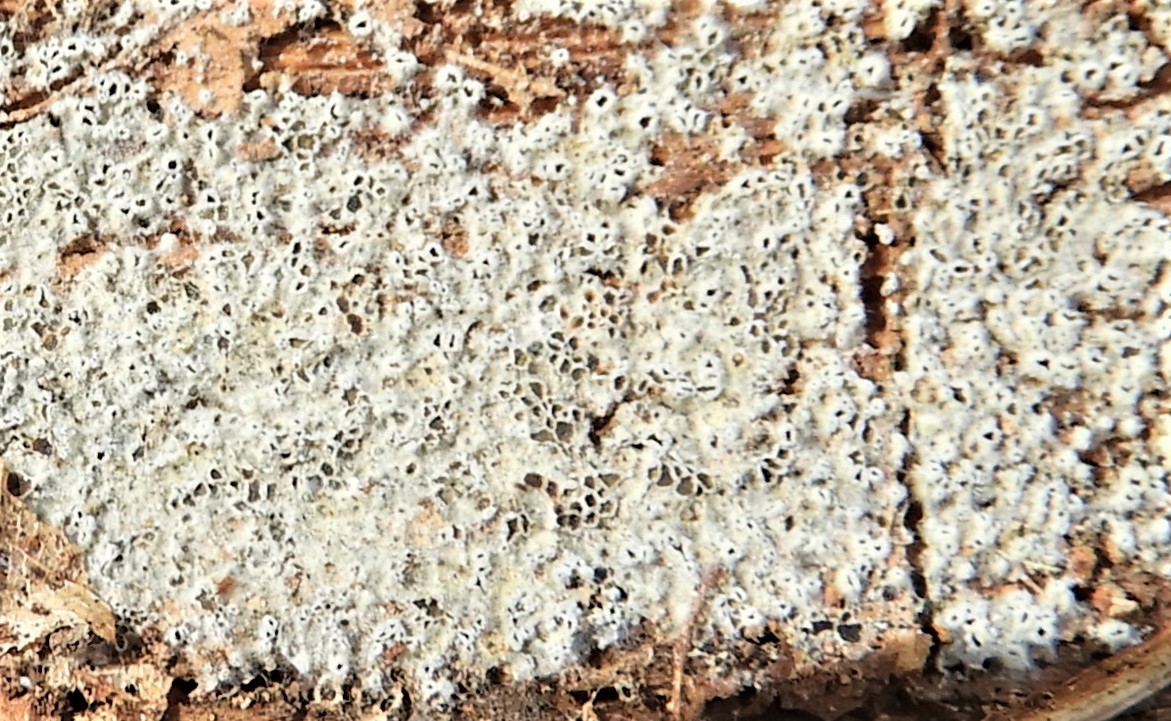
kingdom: Fungi
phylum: Ascomycota
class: Leotiomycetes
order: Helotiales
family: Arachnopezizaceae
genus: Eriopezia
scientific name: Eriopezia caesia
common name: ege-spindskive
